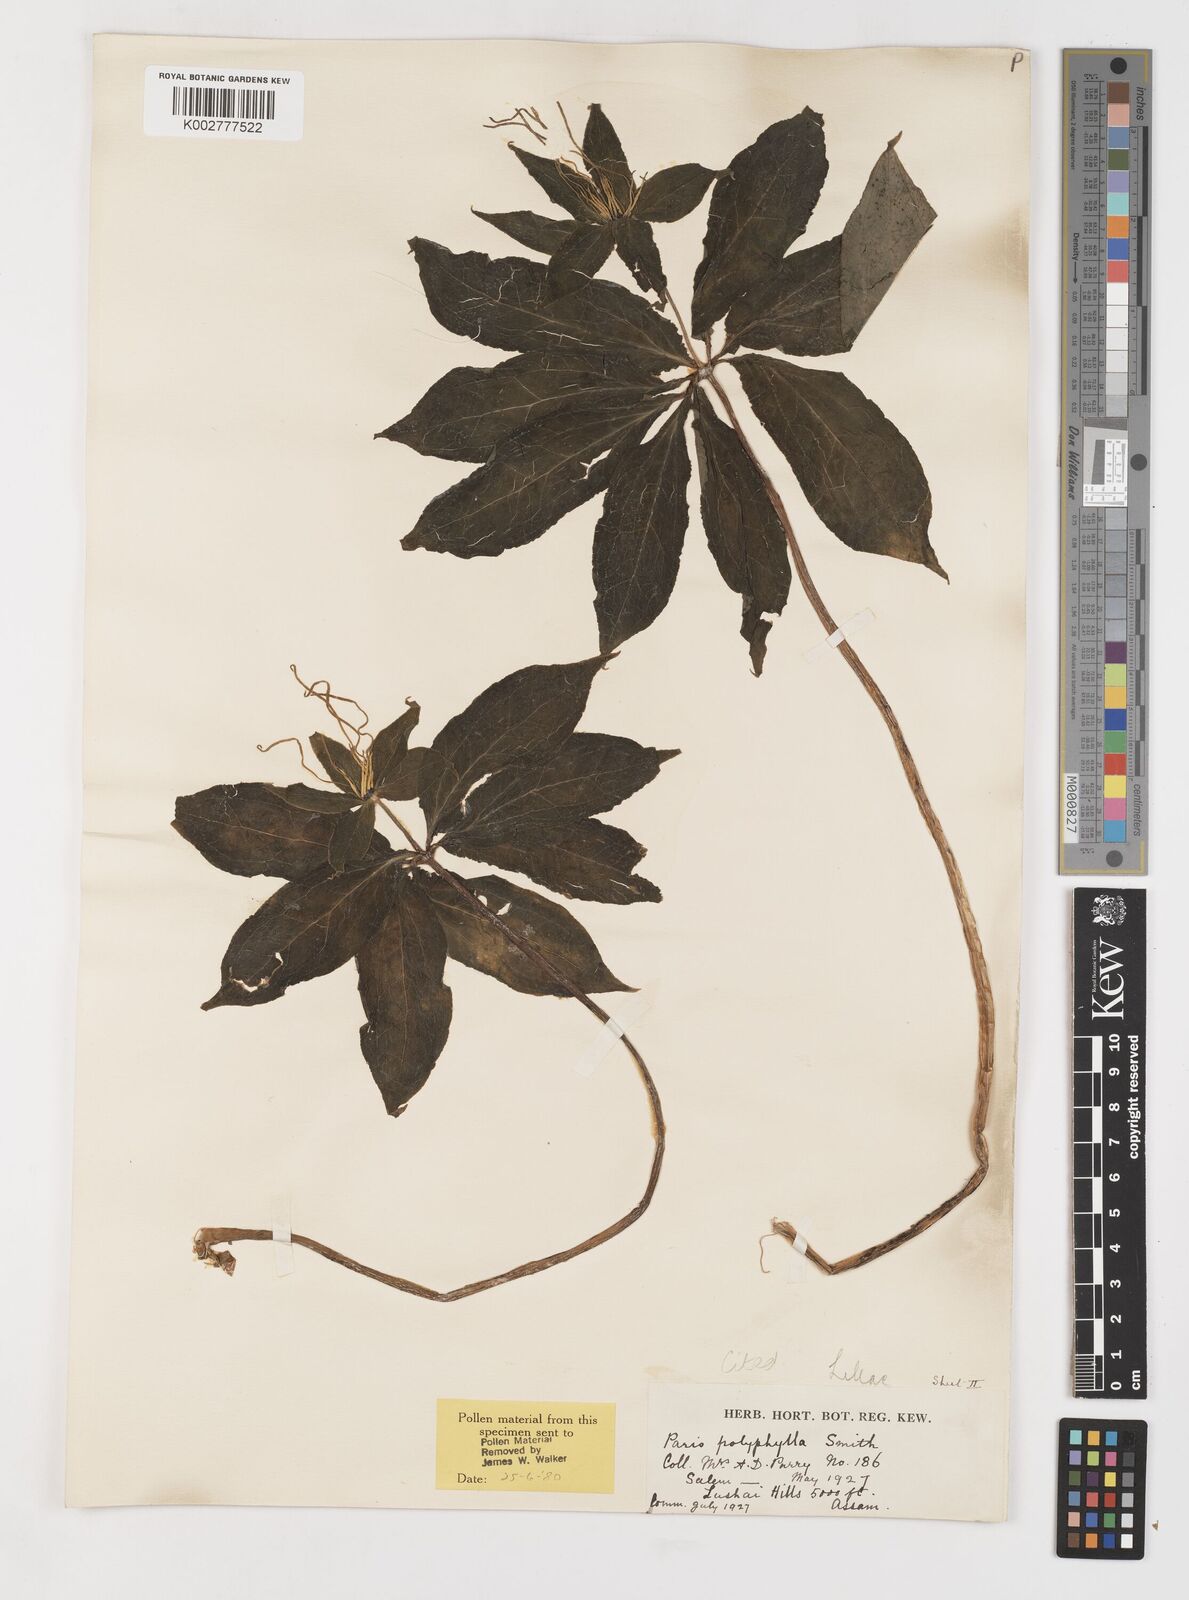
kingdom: Plantae
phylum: Tracheophyta
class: Liliopsida
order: Liliales
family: Melanthiaceae
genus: Paris
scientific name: Paris yunnanensis
